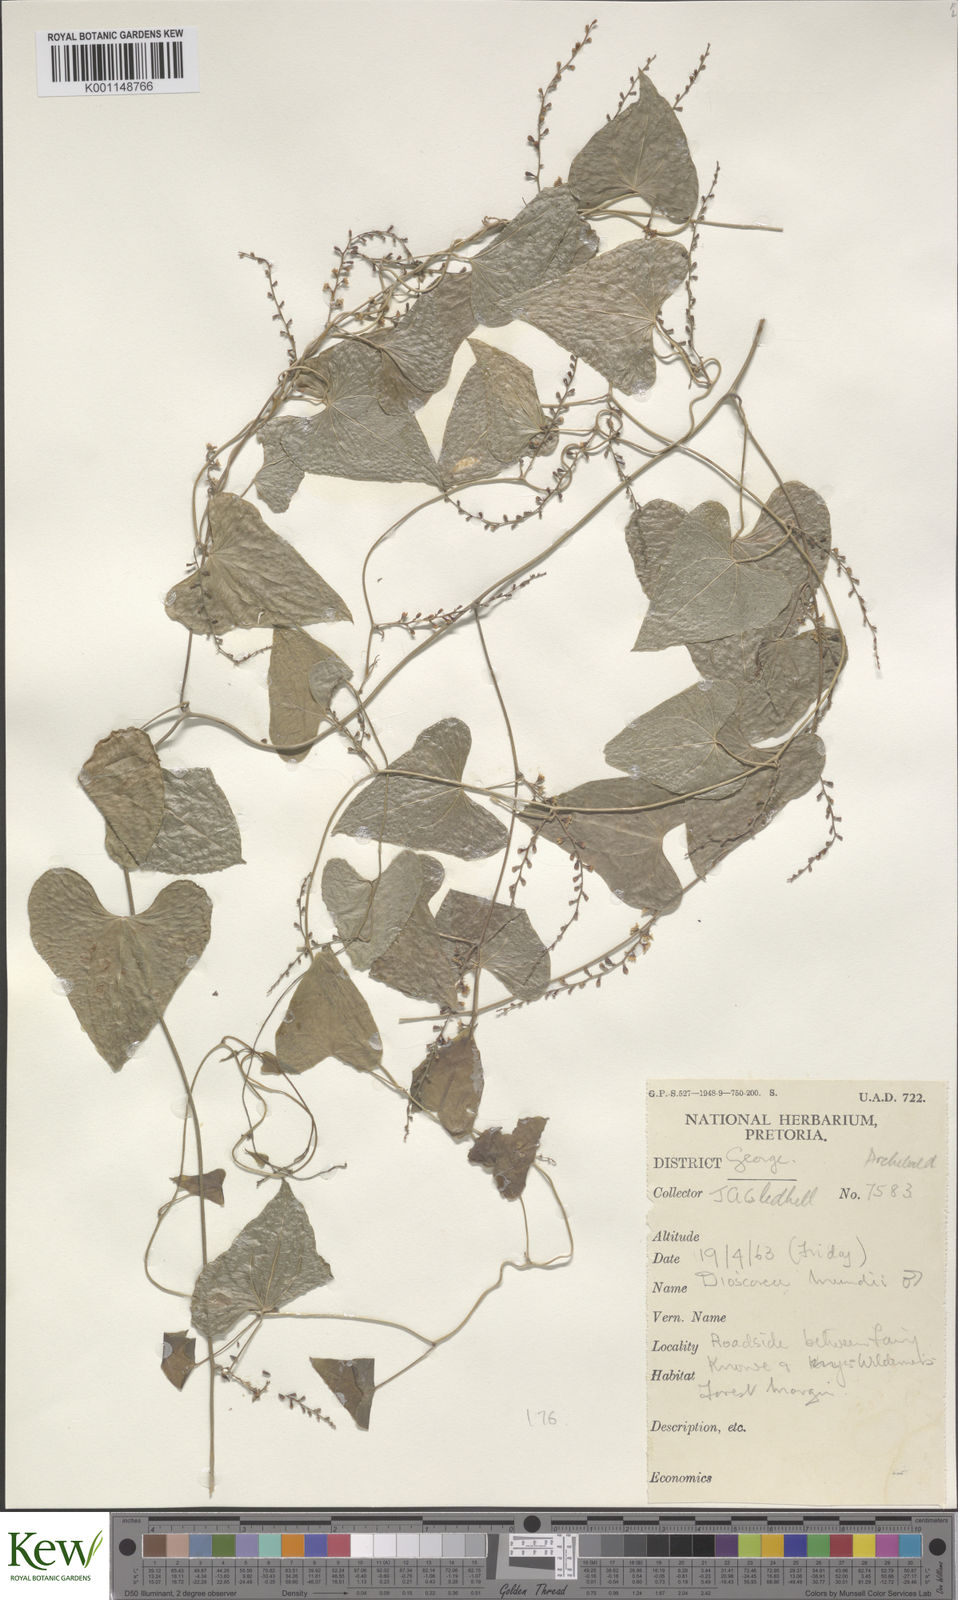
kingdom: Plantae
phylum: Tracheophyta
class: Liliopsida
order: Dioscoreales
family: Dioscoreaceae
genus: Dioscorea
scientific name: Dioscorea mundii
